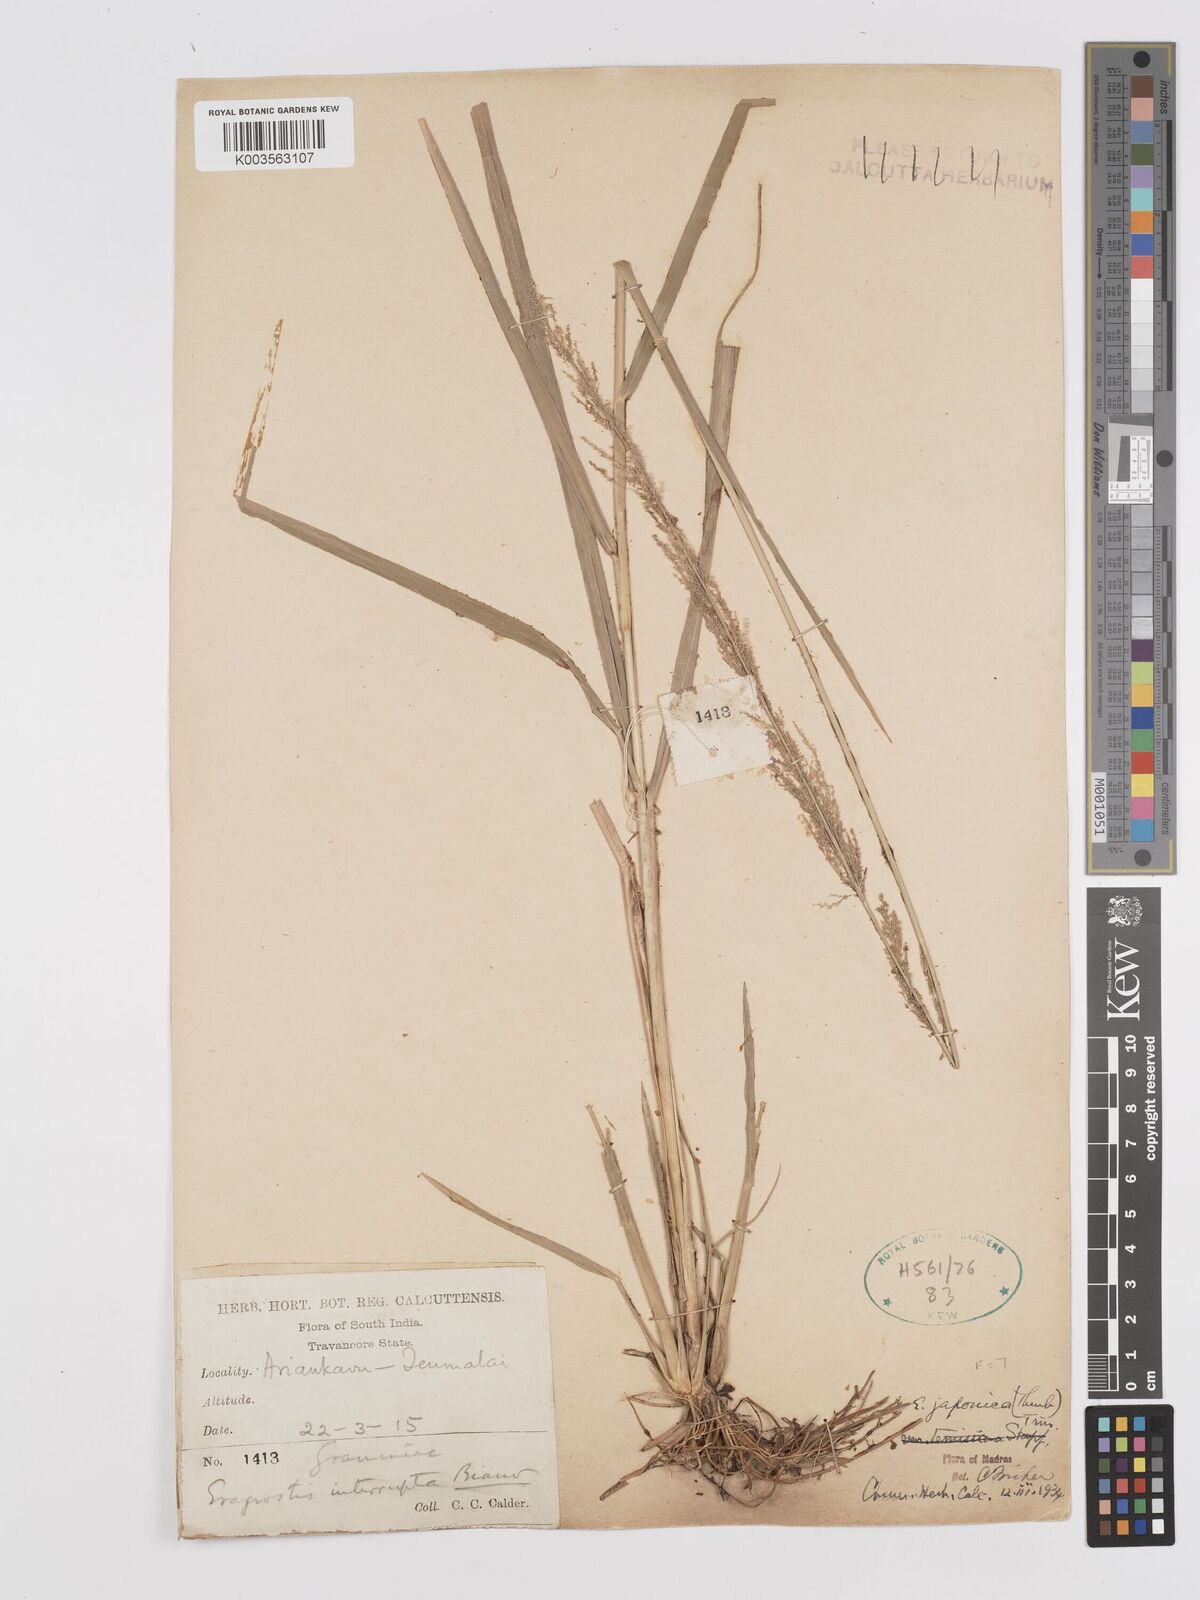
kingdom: Plantae
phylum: Tracheophyta
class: Liliopsida
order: Poales
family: Poaceae
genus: Eragrostis
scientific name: Eragrostis japonica
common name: Pond lovegrass
